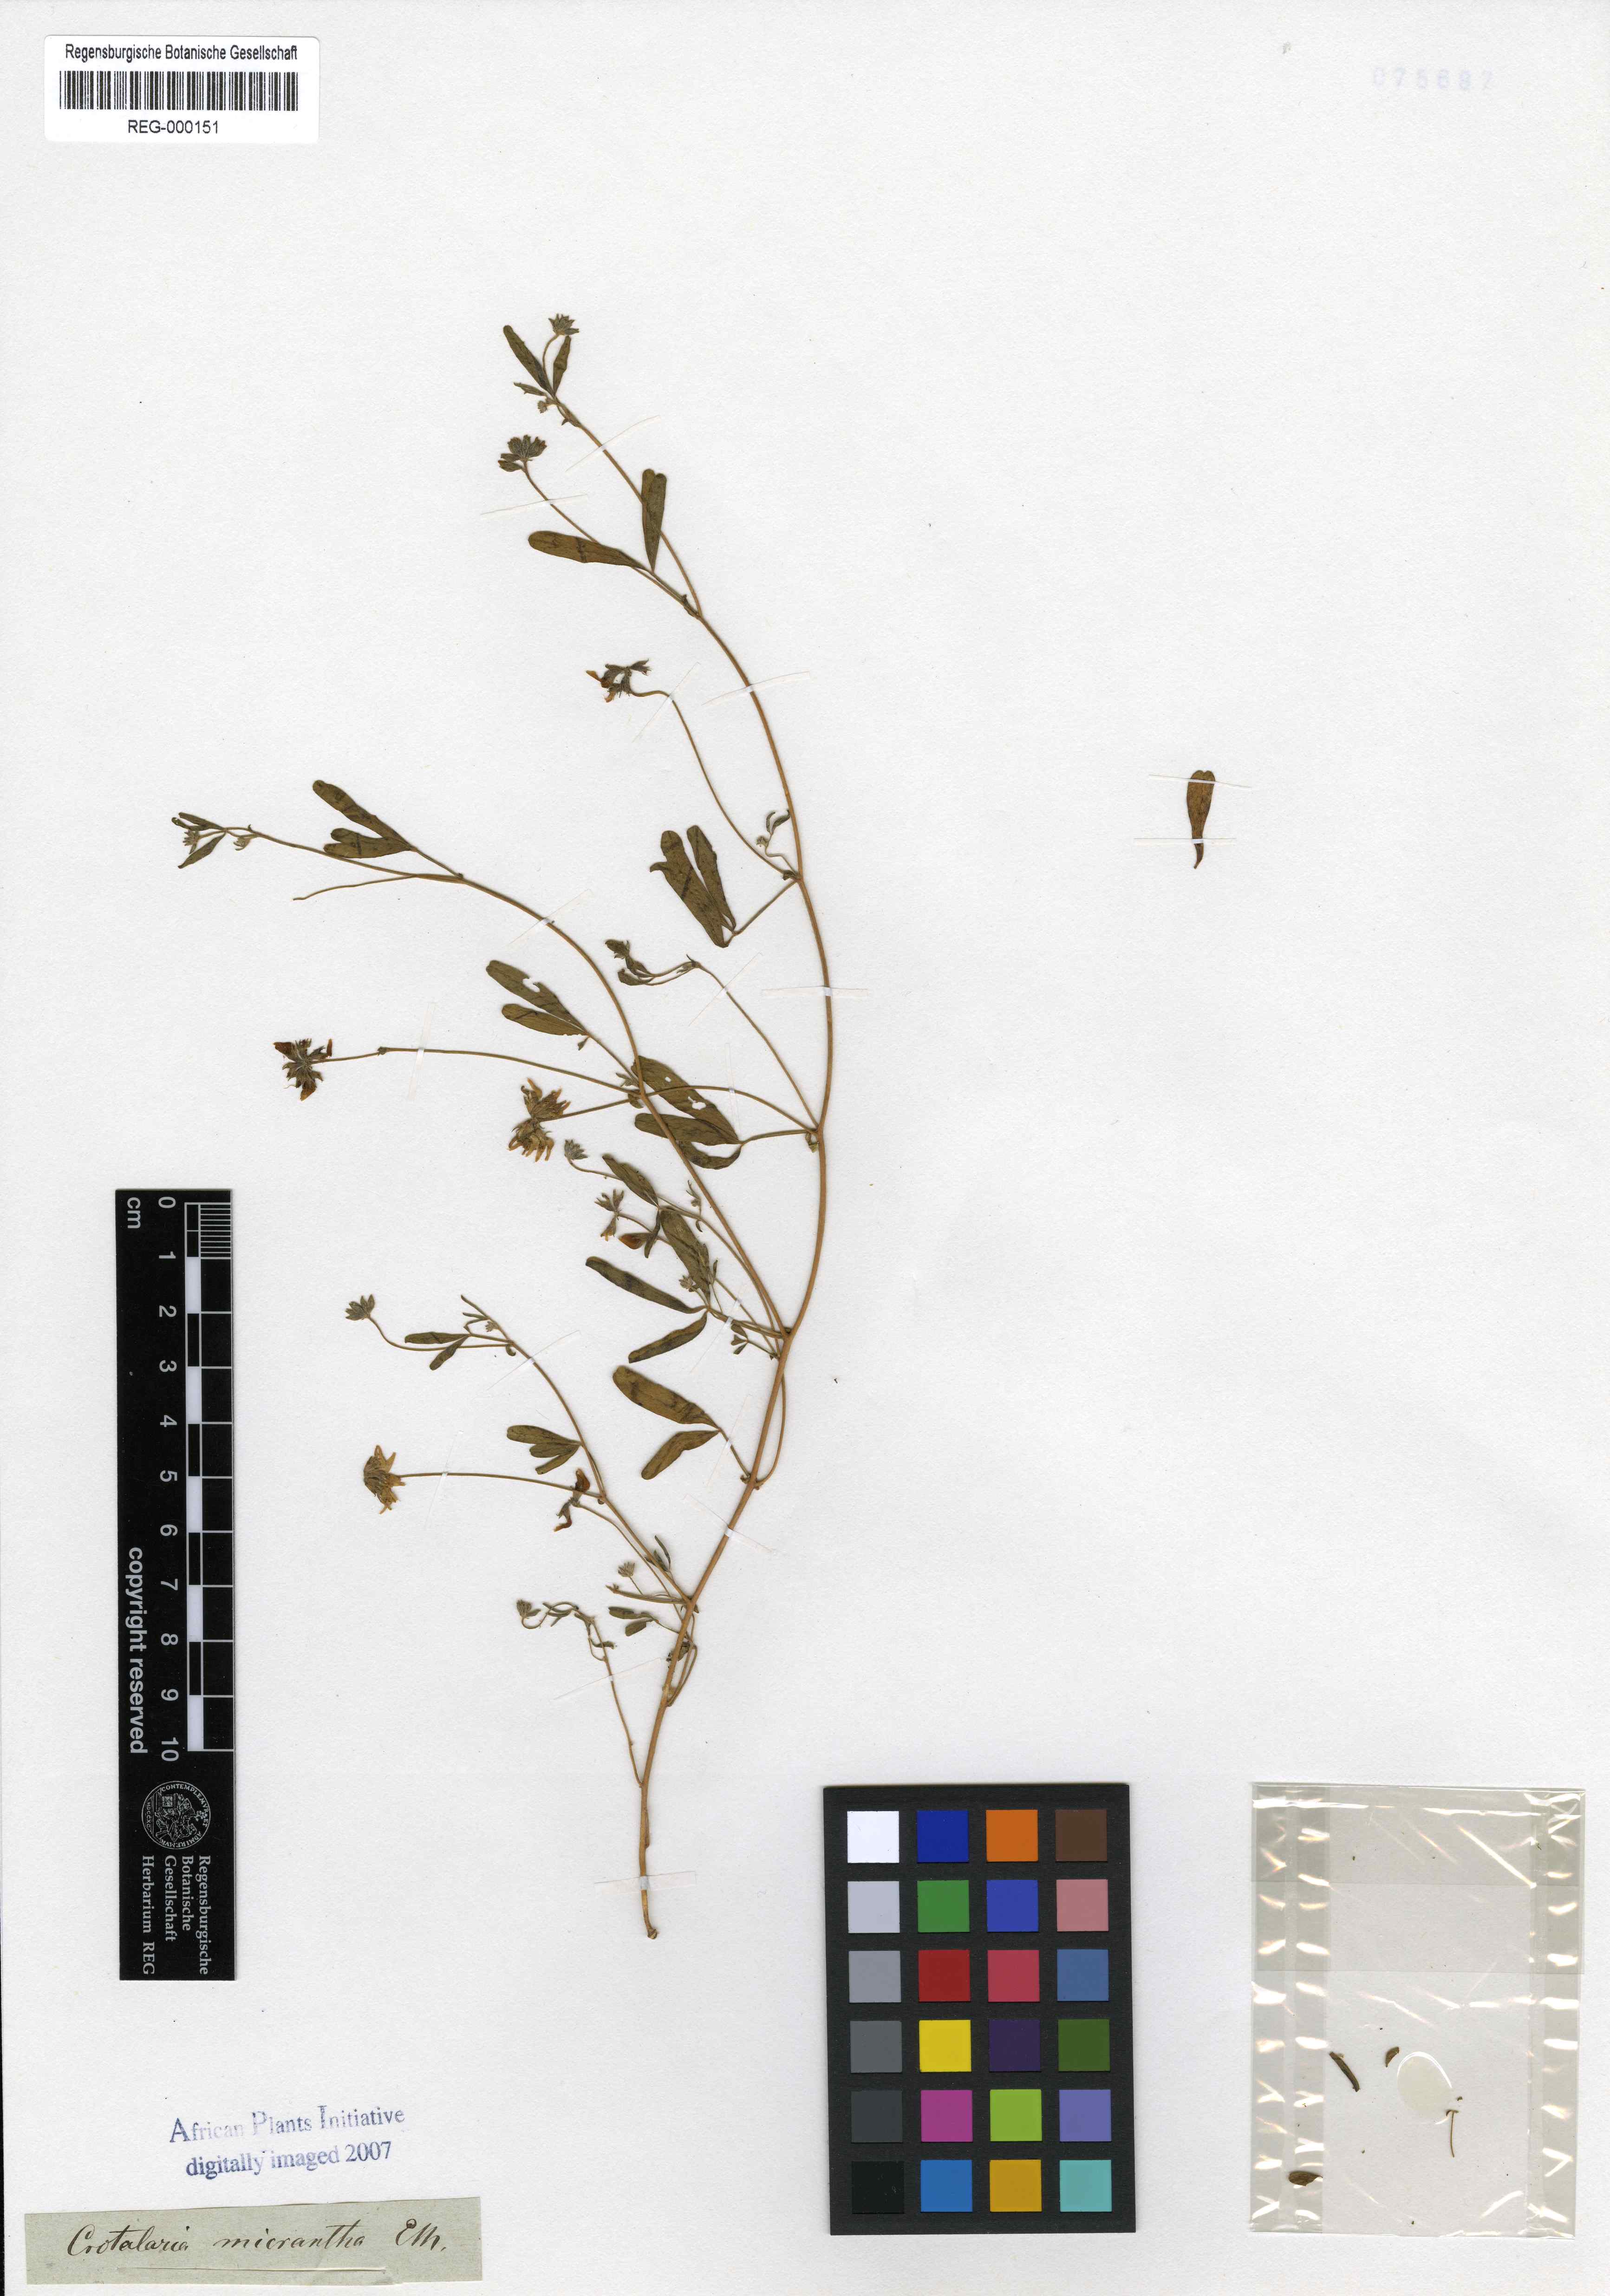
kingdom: Plantae
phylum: Tracheophyta
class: Magnoliopsida
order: Fabales
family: Fabaceae
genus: Lotononis
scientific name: Lotononis micrantha
